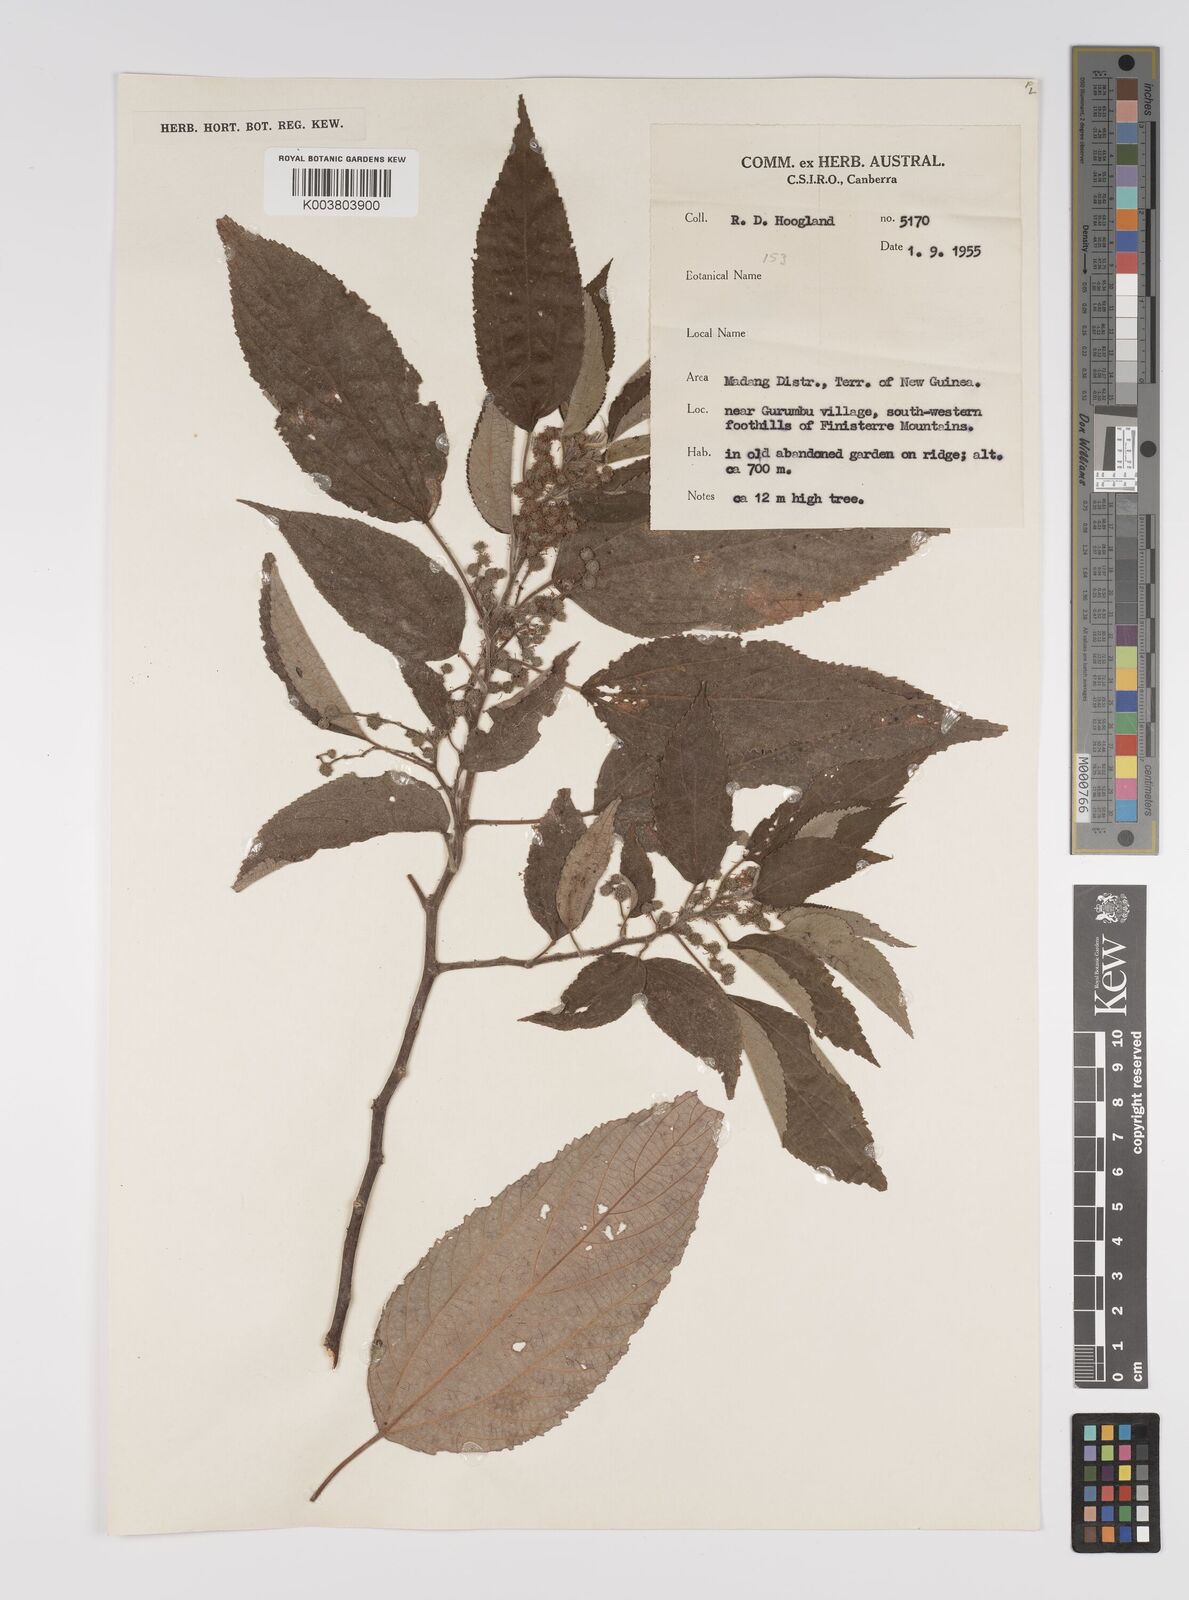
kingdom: Plantae
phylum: Tracheophyta
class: Magnoliopsida
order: Rosales
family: Urticaceae
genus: Pipturus
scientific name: Pipturus argenteus
